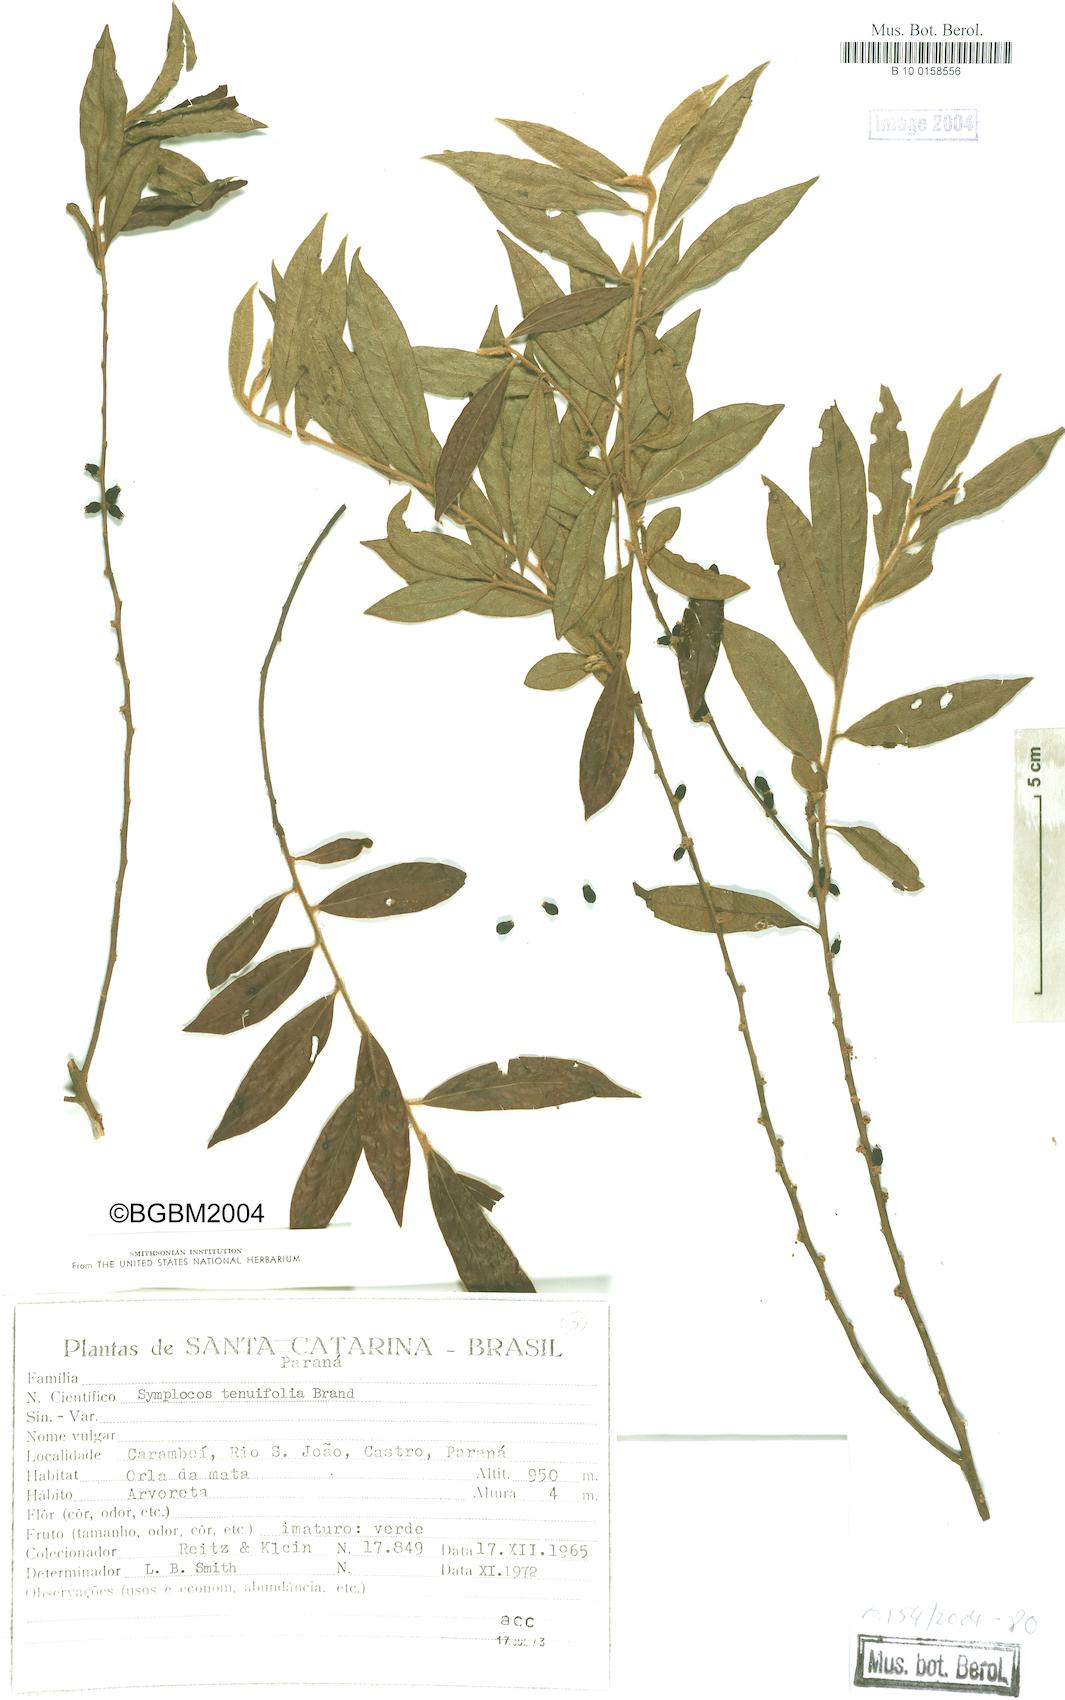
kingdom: Plantae
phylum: Tracheophyta
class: Magnoliopsida
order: Ericales
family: Symplocaceae
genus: Symplocos
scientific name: Symplocos tenuifolia
